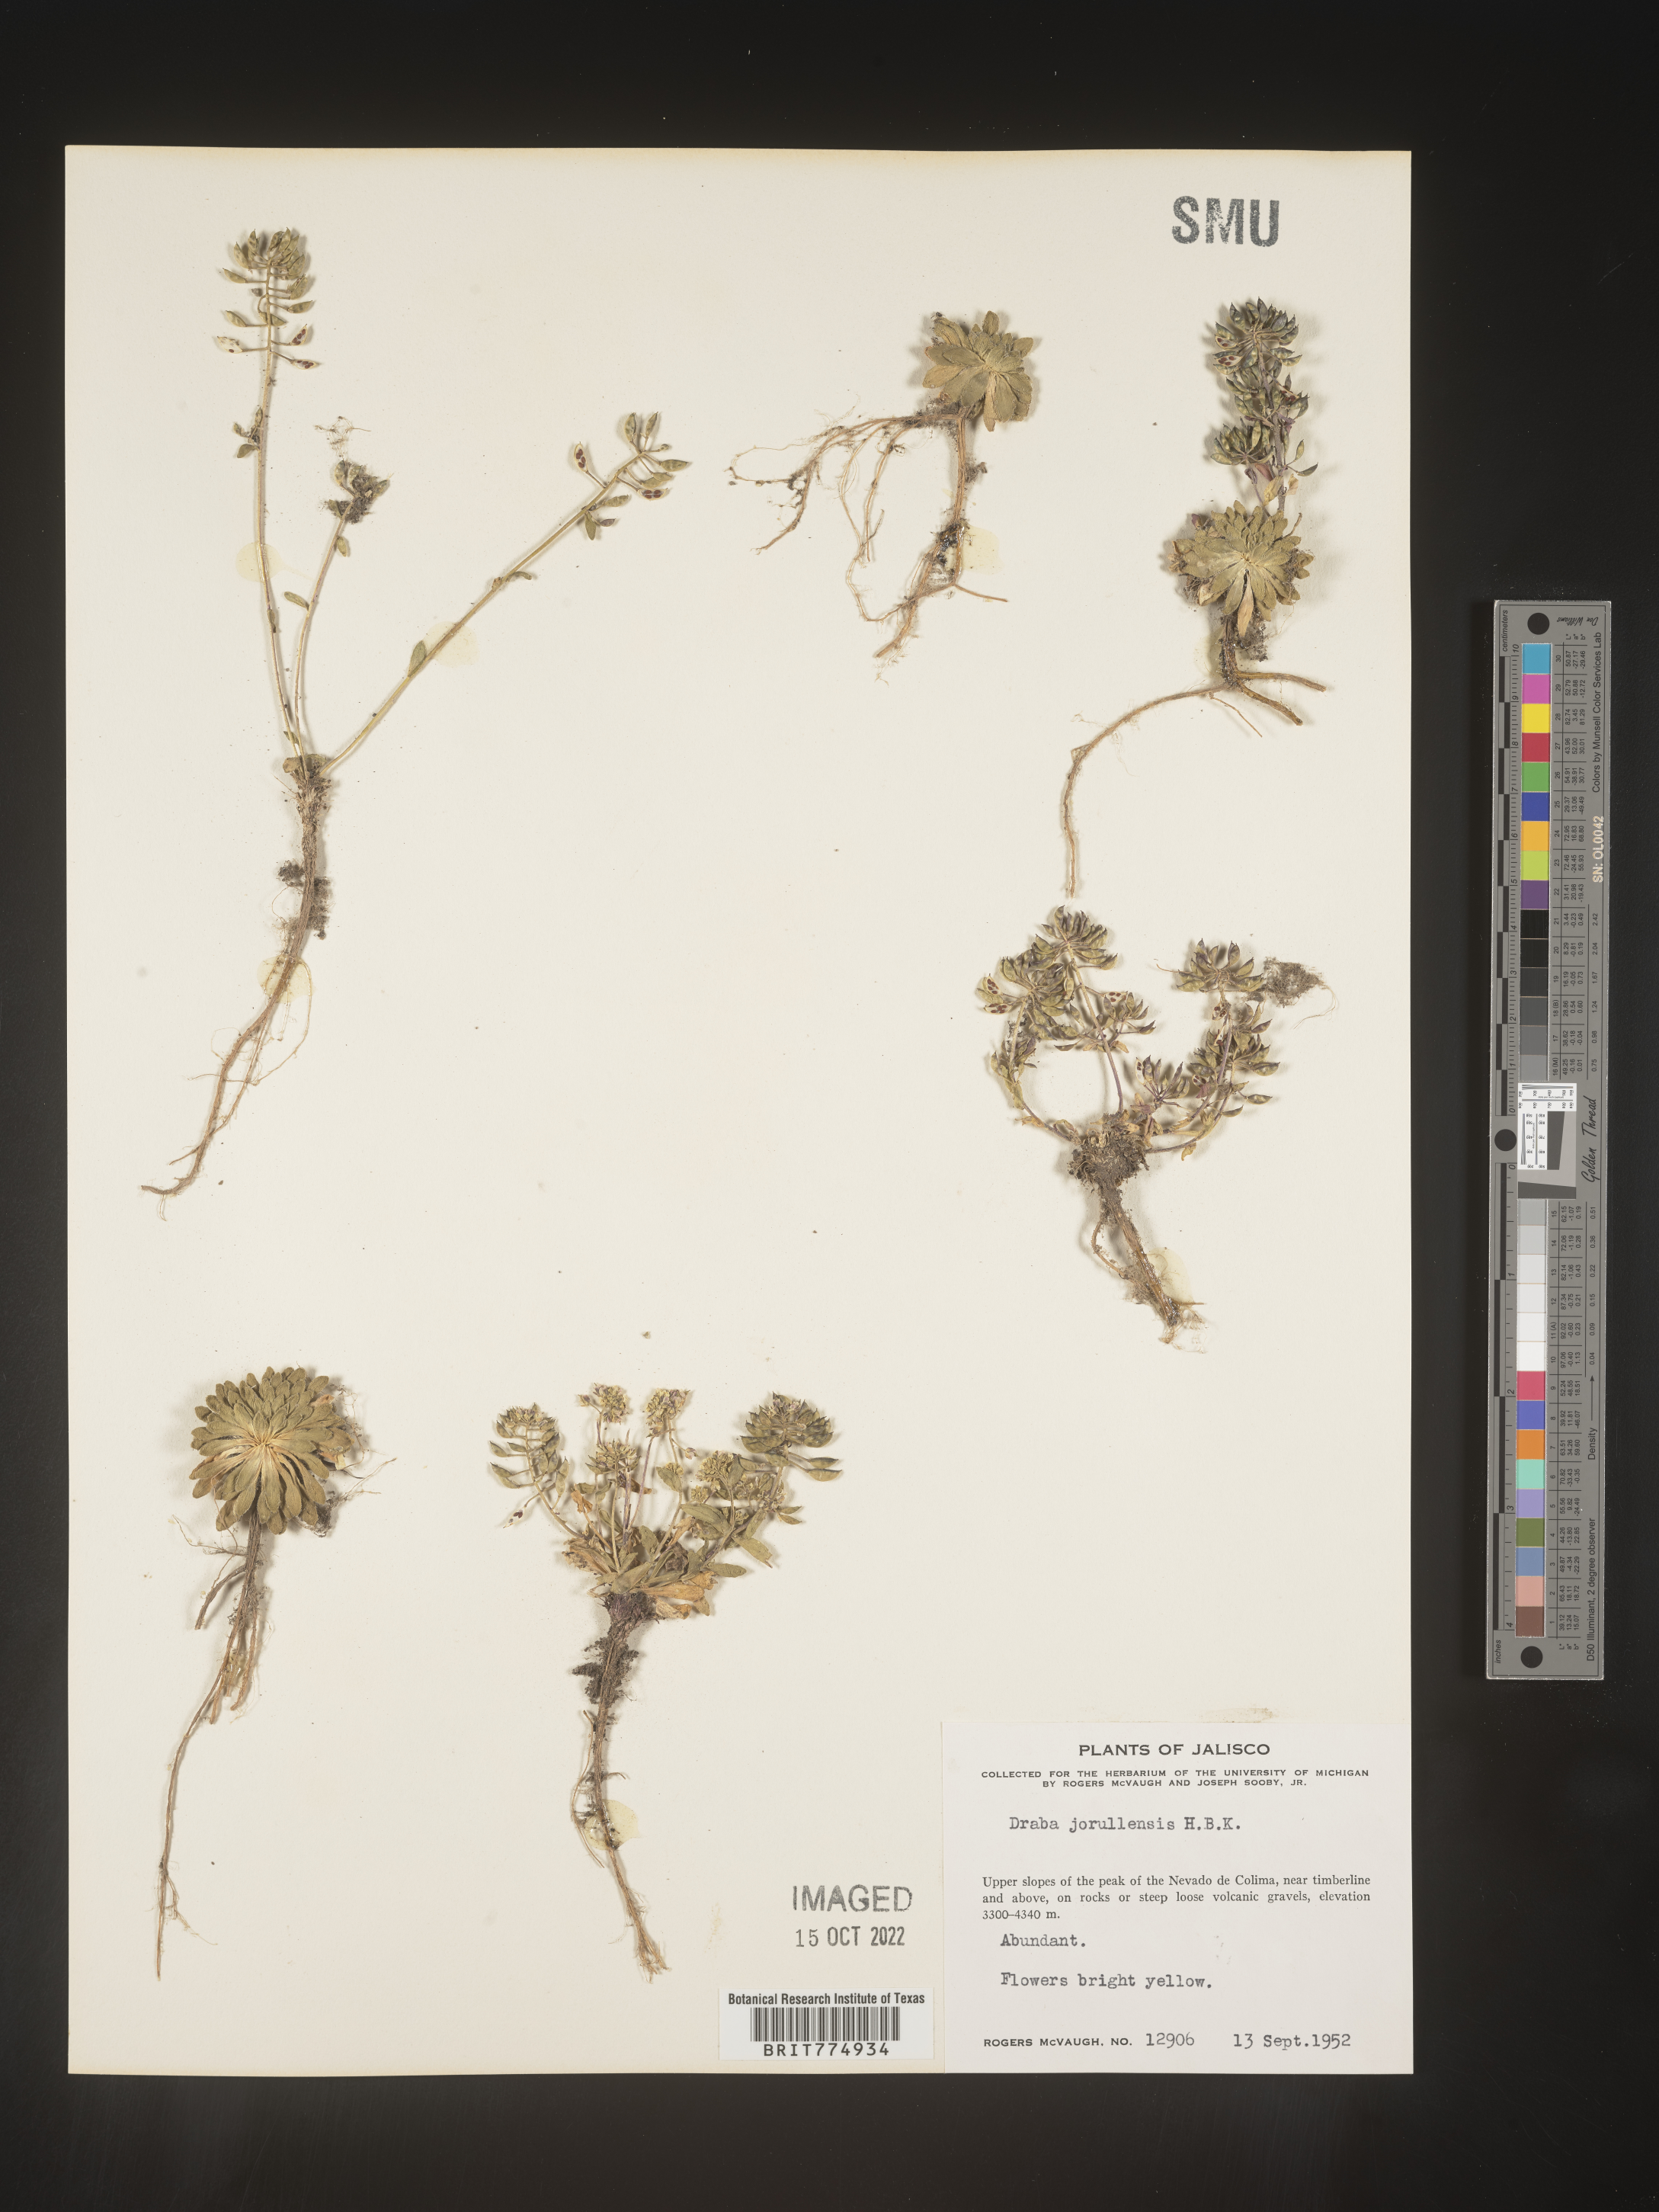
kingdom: Plantae
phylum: Tracheophyta
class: Magnoliopsida
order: Brassicales
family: Brassicaceae
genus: Draba
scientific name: Draba
